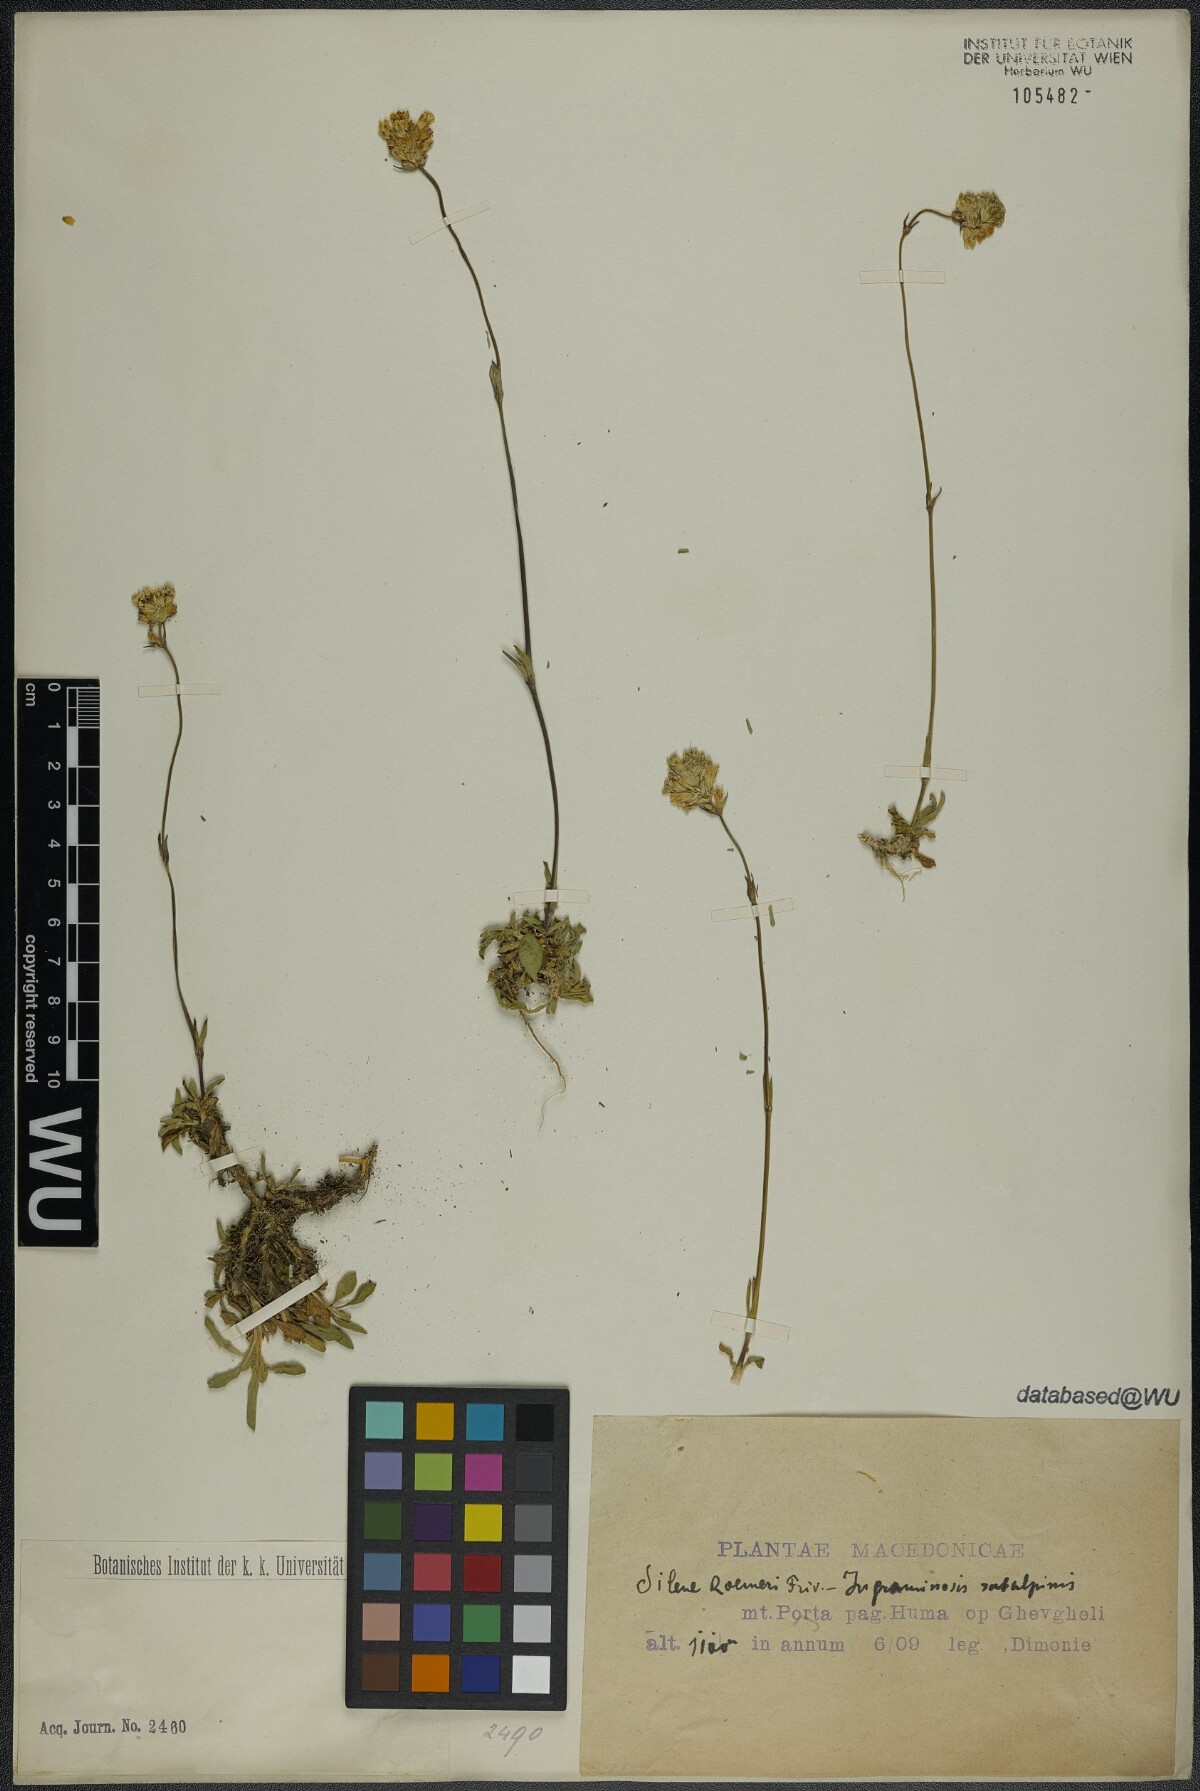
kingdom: Plantae
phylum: Tracheophyta
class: Magnoliopsida
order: Caryophyllales
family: Caryophyllaceae
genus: Silene
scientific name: Silene roemeri
